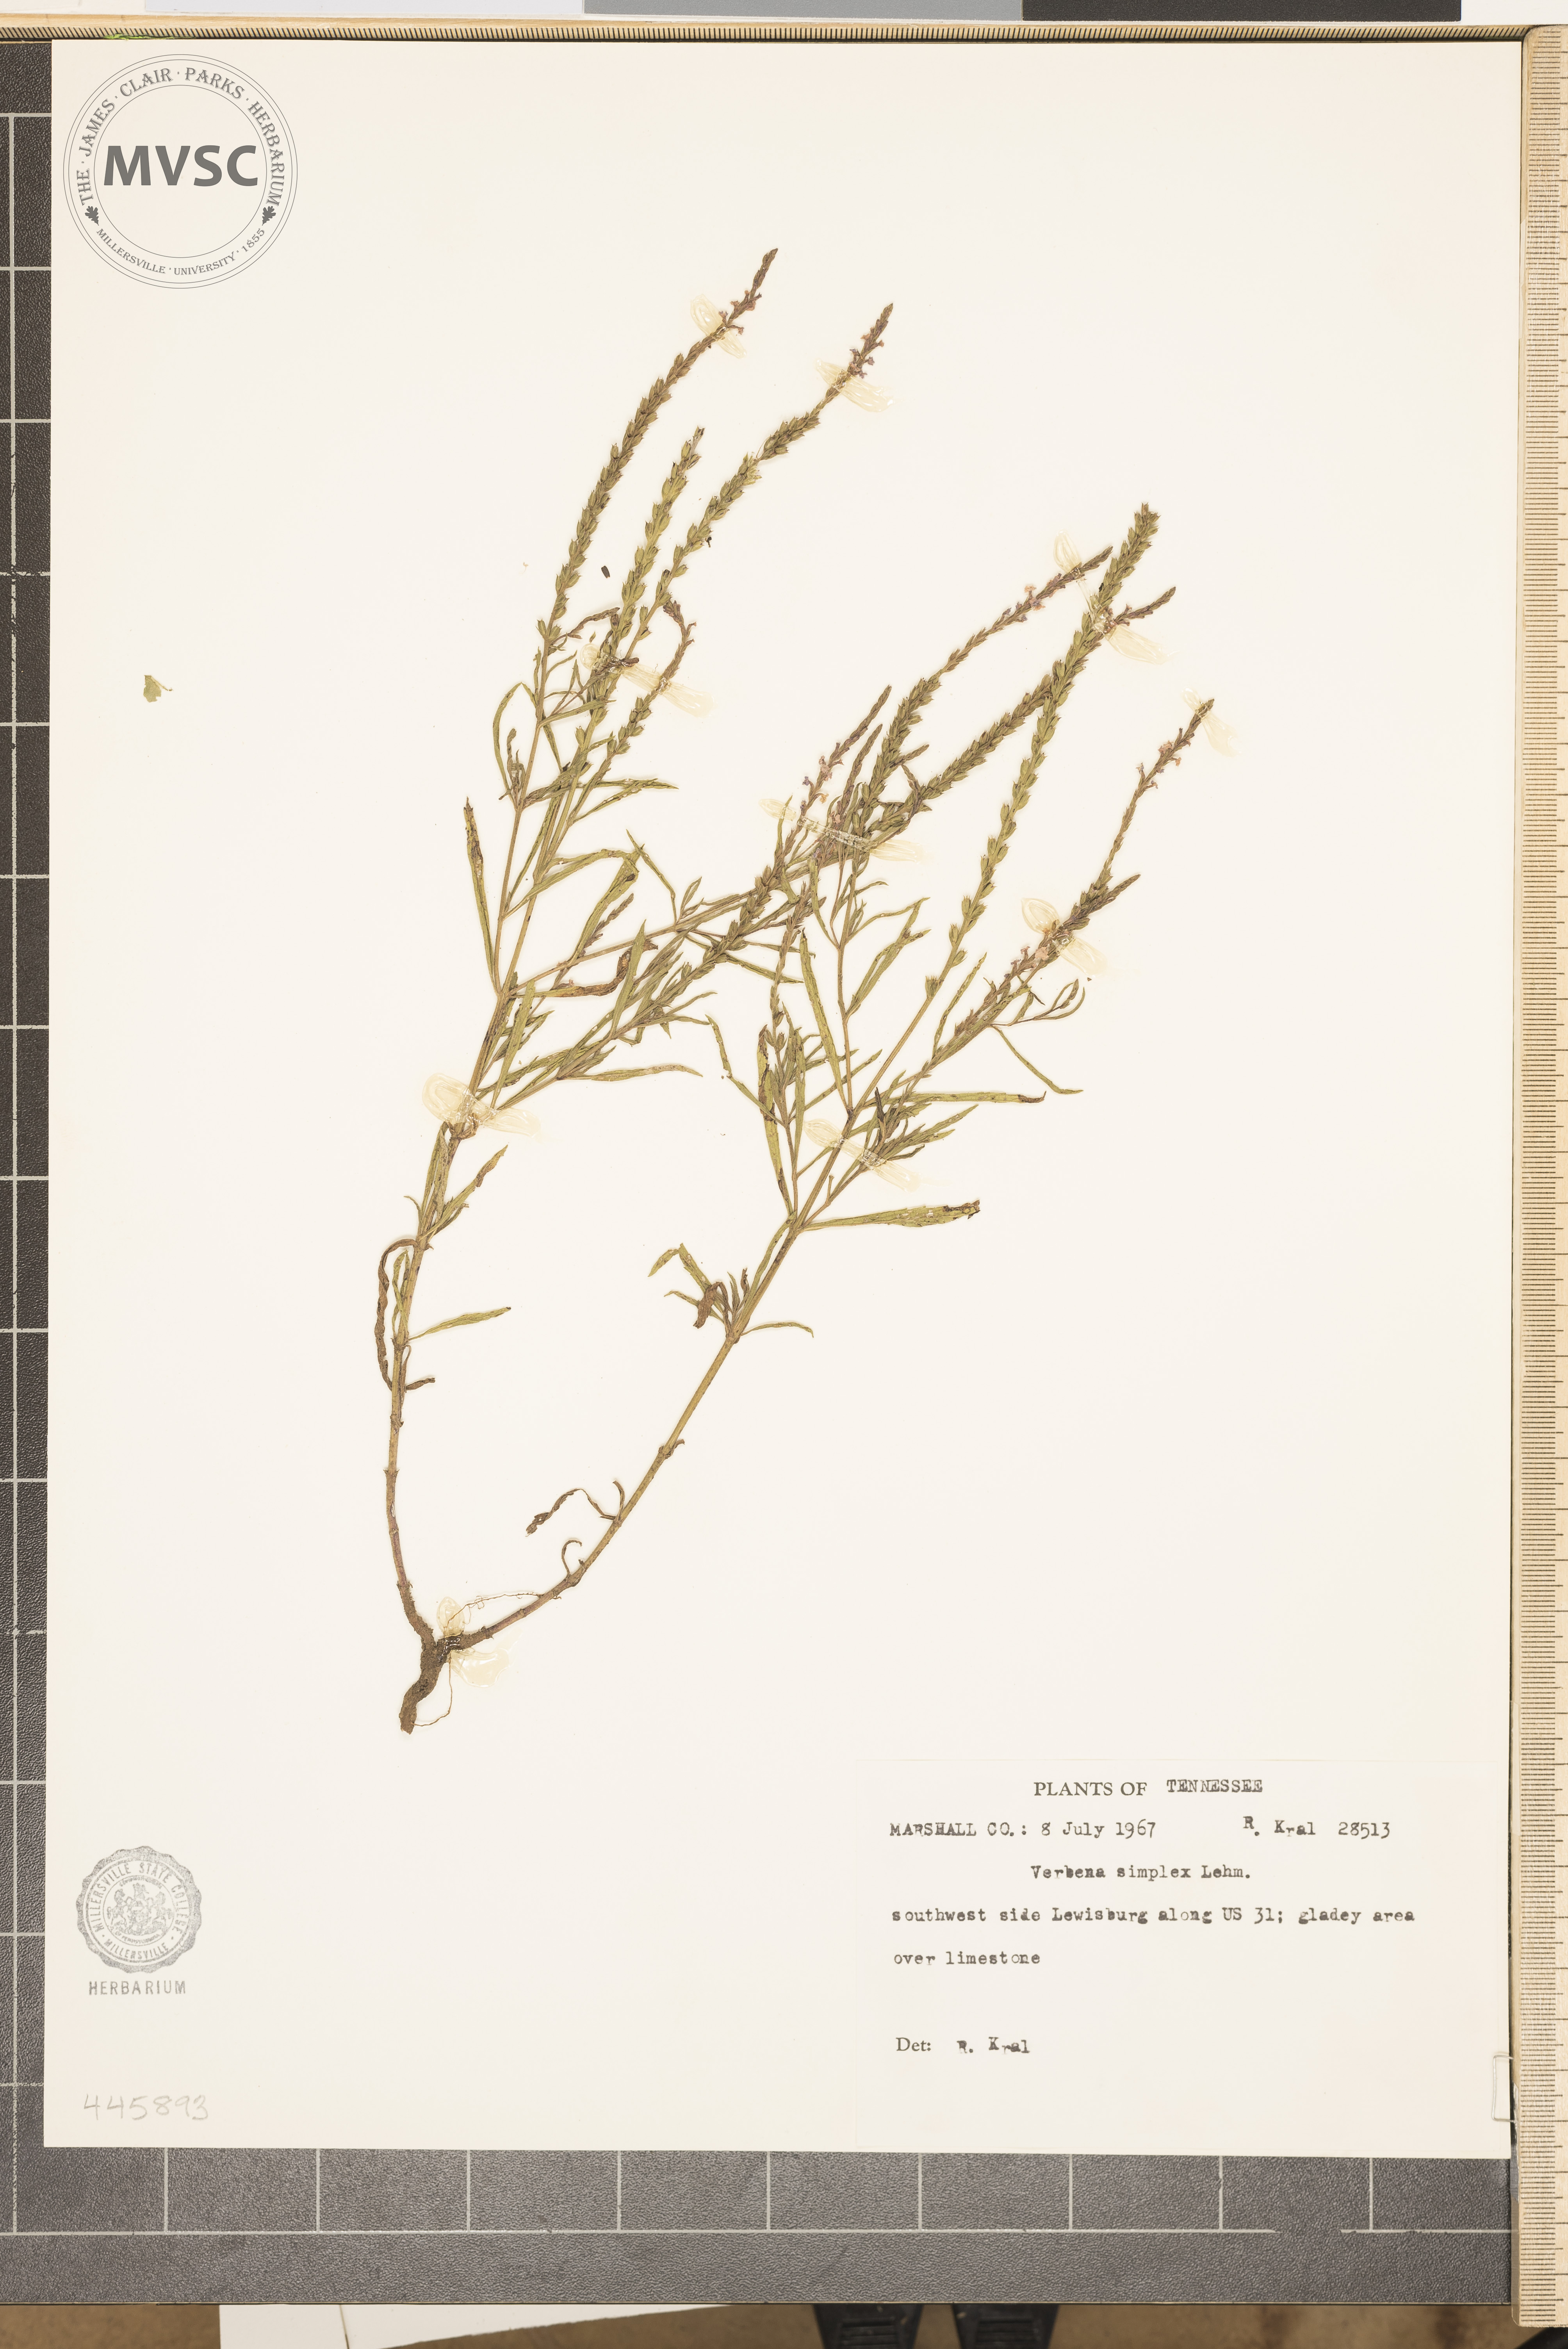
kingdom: Plantae
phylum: Tracheophyta
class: Magnoliopsida
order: Lamiales
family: Verbenaceae
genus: Verbena
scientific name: Verbena simplex
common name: Narrow-leaf vervain
